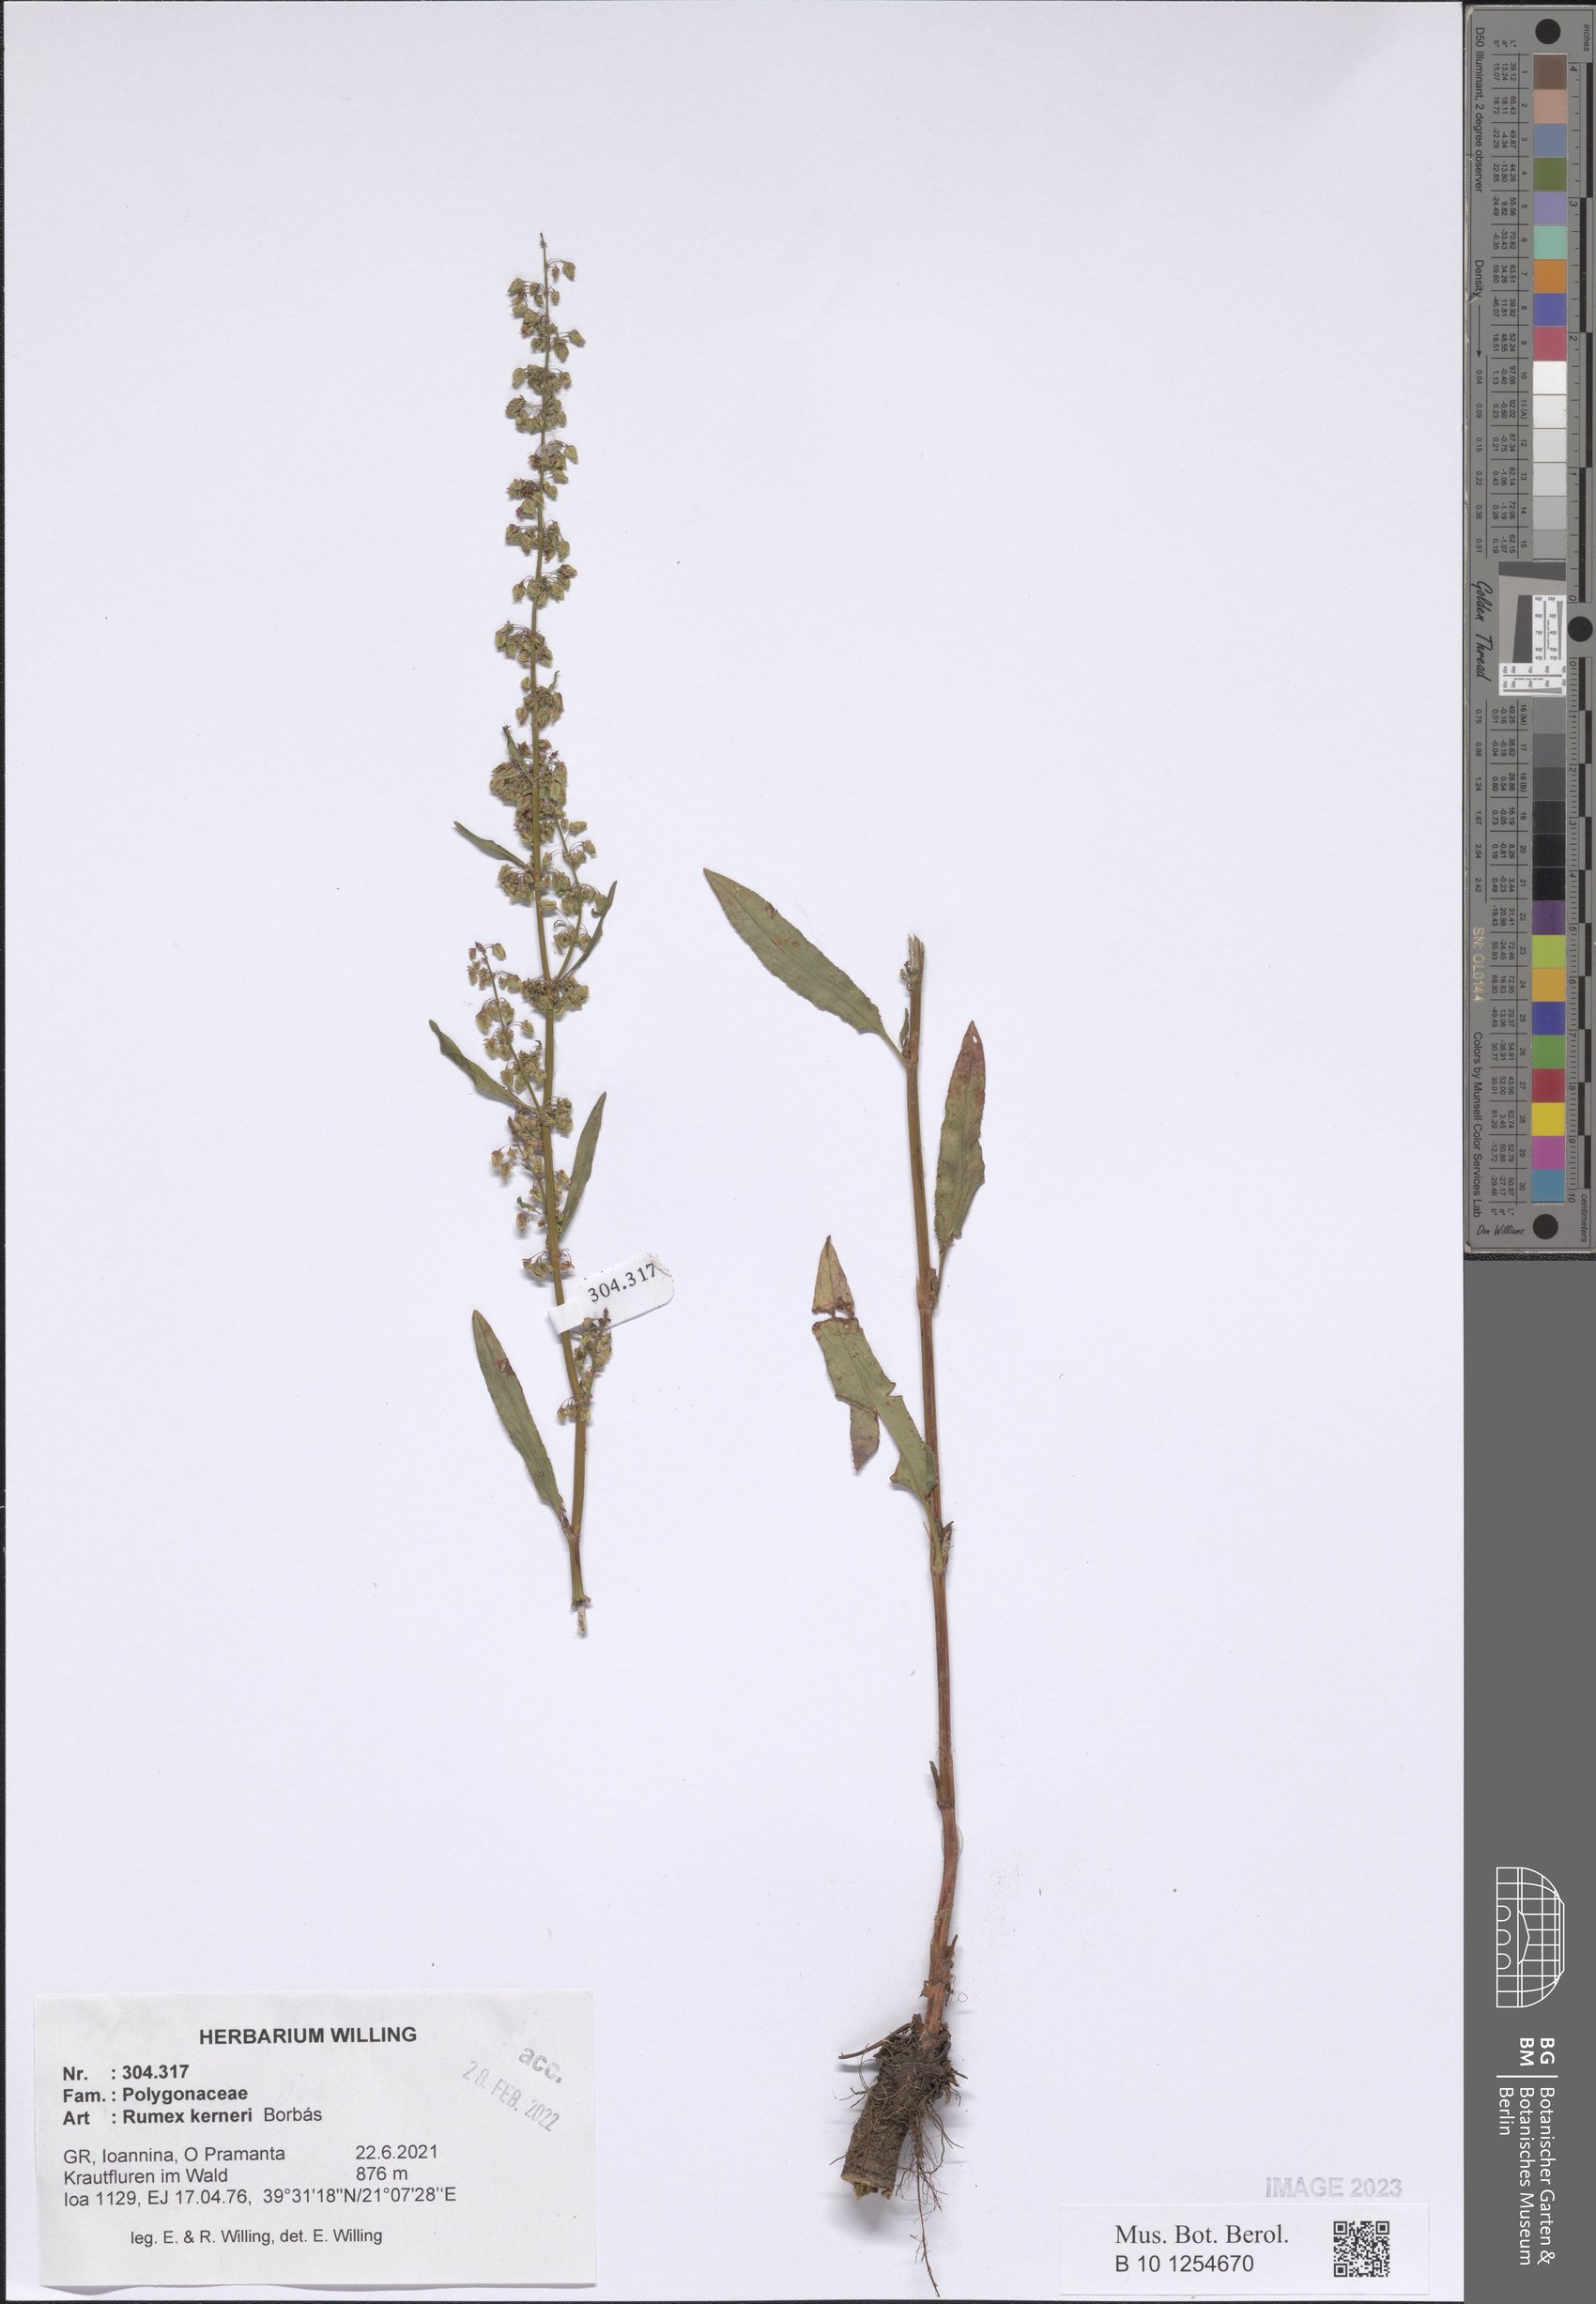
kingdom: Plantae
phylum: Tracheophyta
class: Magnoliopsida
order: Caryophyllales
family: Polygonaceae
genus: Rumex
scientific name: Rumex kerneri
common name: Kerner's dock
